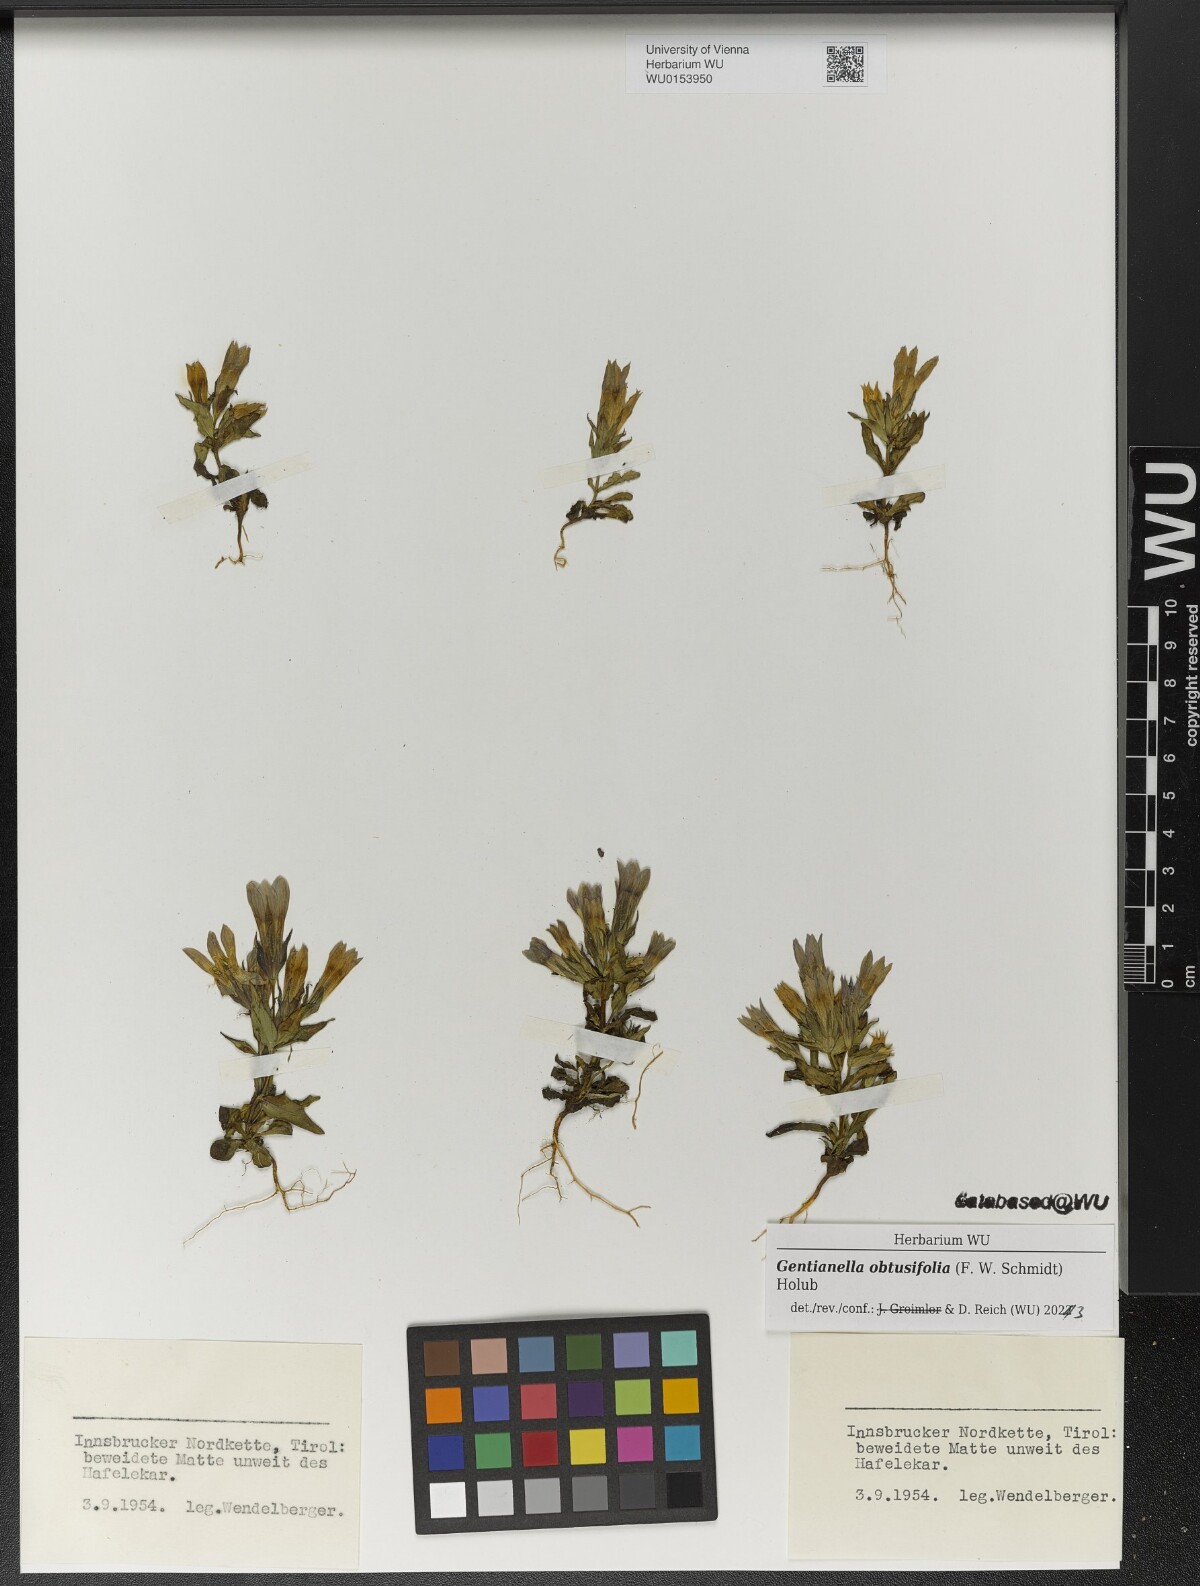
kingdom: Plantae
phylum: Tracheophyta
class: Magnoliopsida
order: Gentianales
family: Gentianaceae
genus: Gentianella
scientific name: Gentianella obtusifolia
